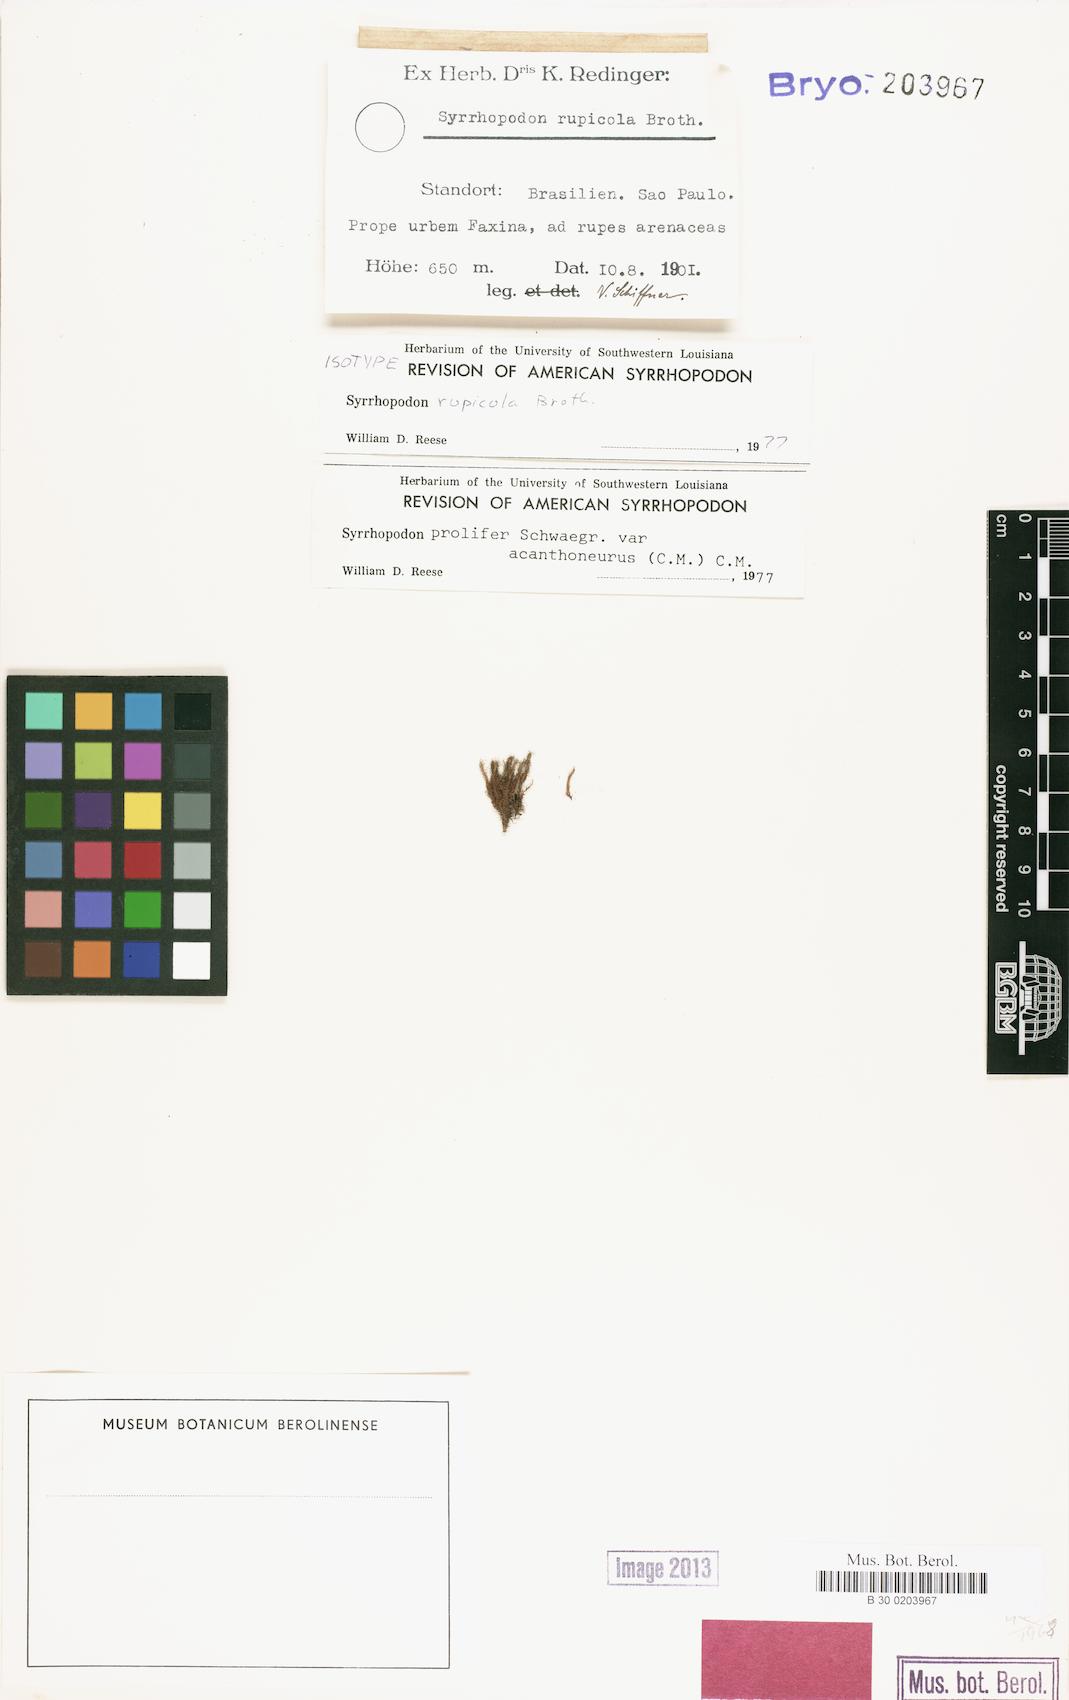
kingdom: Plantae
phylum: Bryophyta
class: Bryopsida
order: Dicranales
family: Calymperaceae
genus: Syrrhopodon
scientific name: Syrrhopodon prolifer
